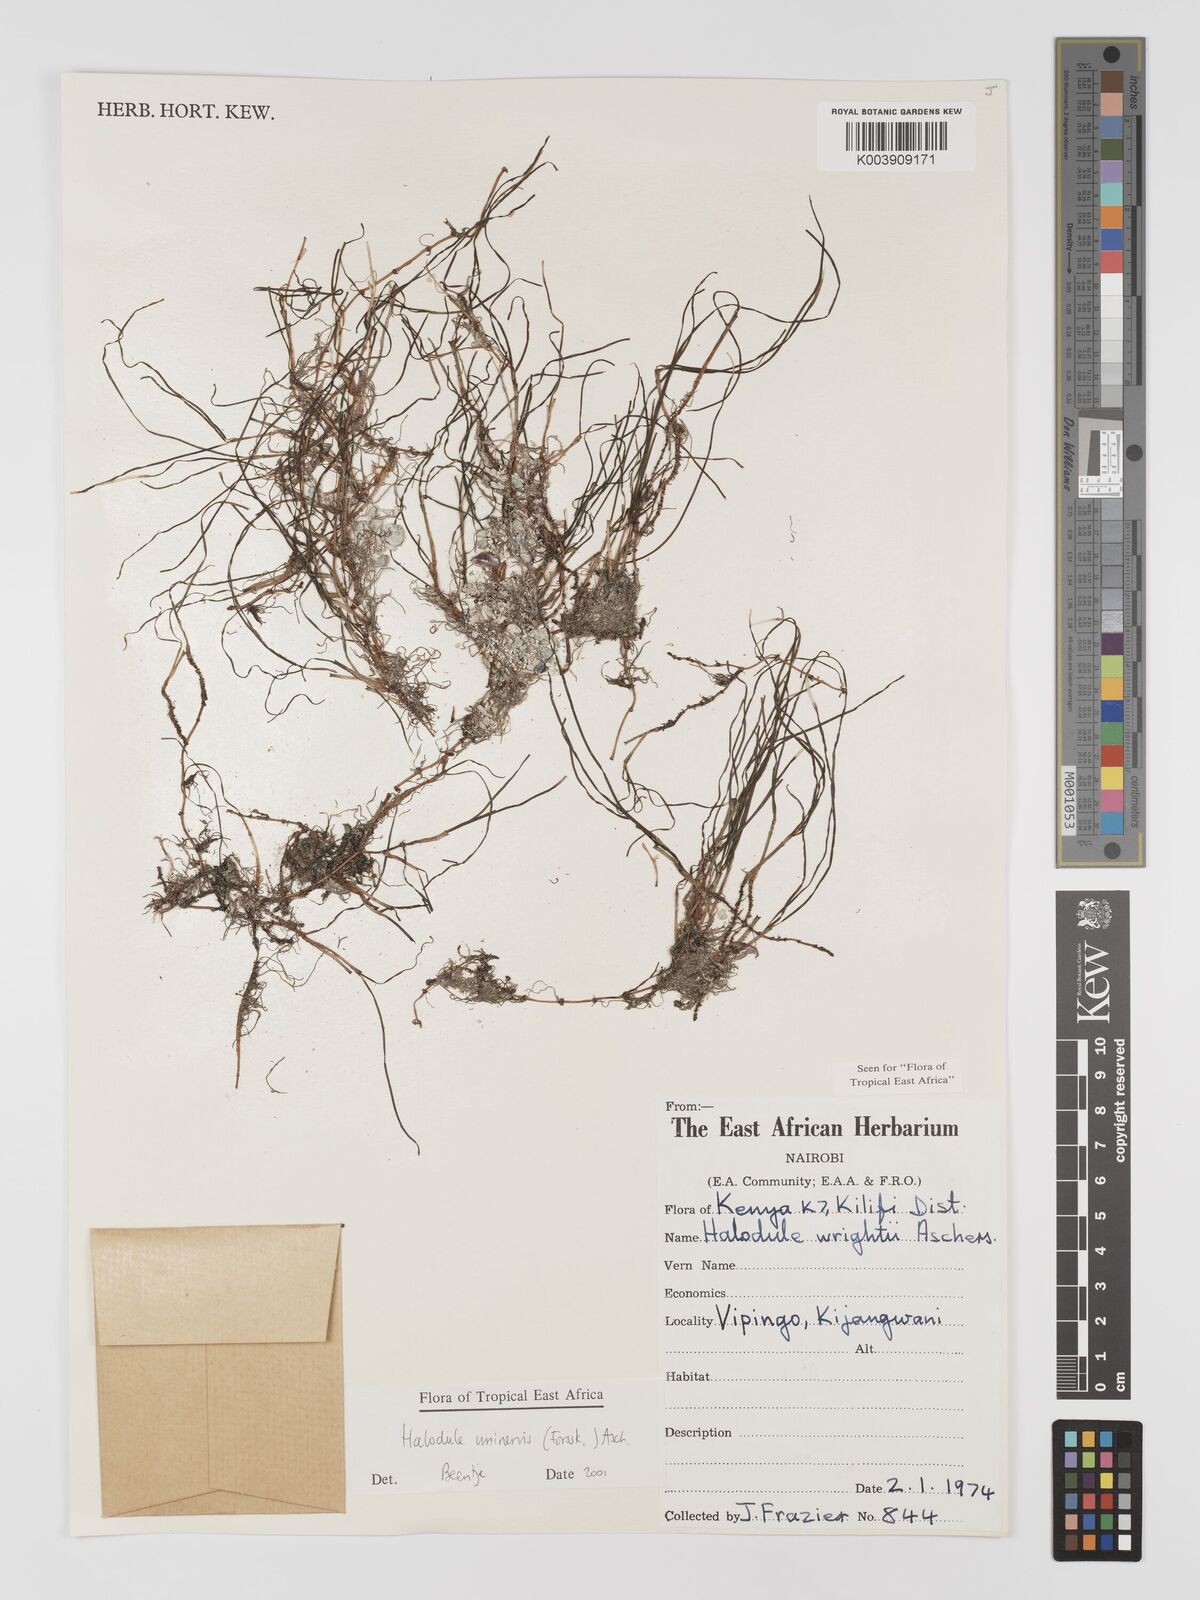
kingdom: Plantae
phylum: Tracheophyta
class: Liliopsida
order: Alismatales
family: Cymodoceaceae
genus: Halodule
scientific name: Halodule uninervis
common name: Narrowleaf seagrass
